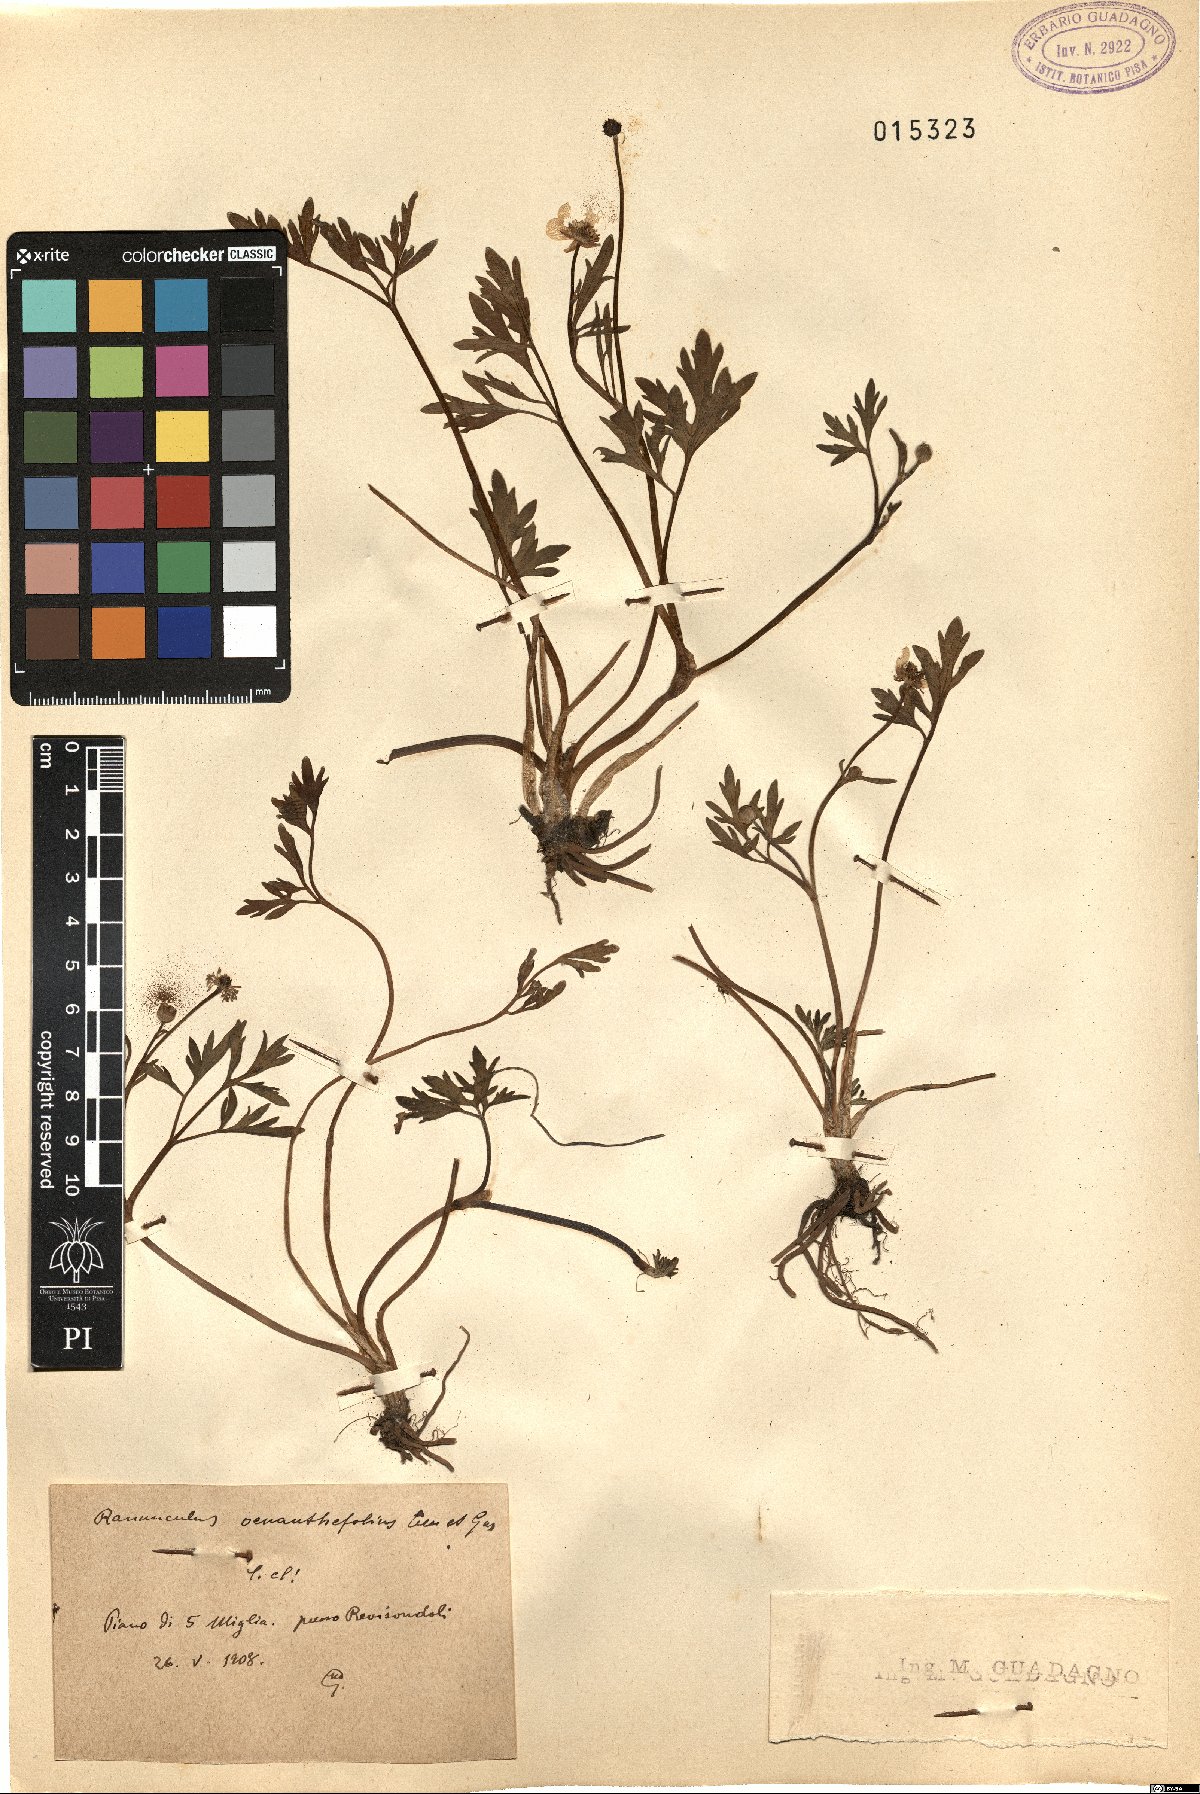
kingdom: Plantae
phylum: Tracheophyta
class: Magnoliopsida
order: Ranunculales
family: Ranunculaceae
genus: Ranunculus
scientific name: Ranunculus repens
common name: Creeping buttercup
